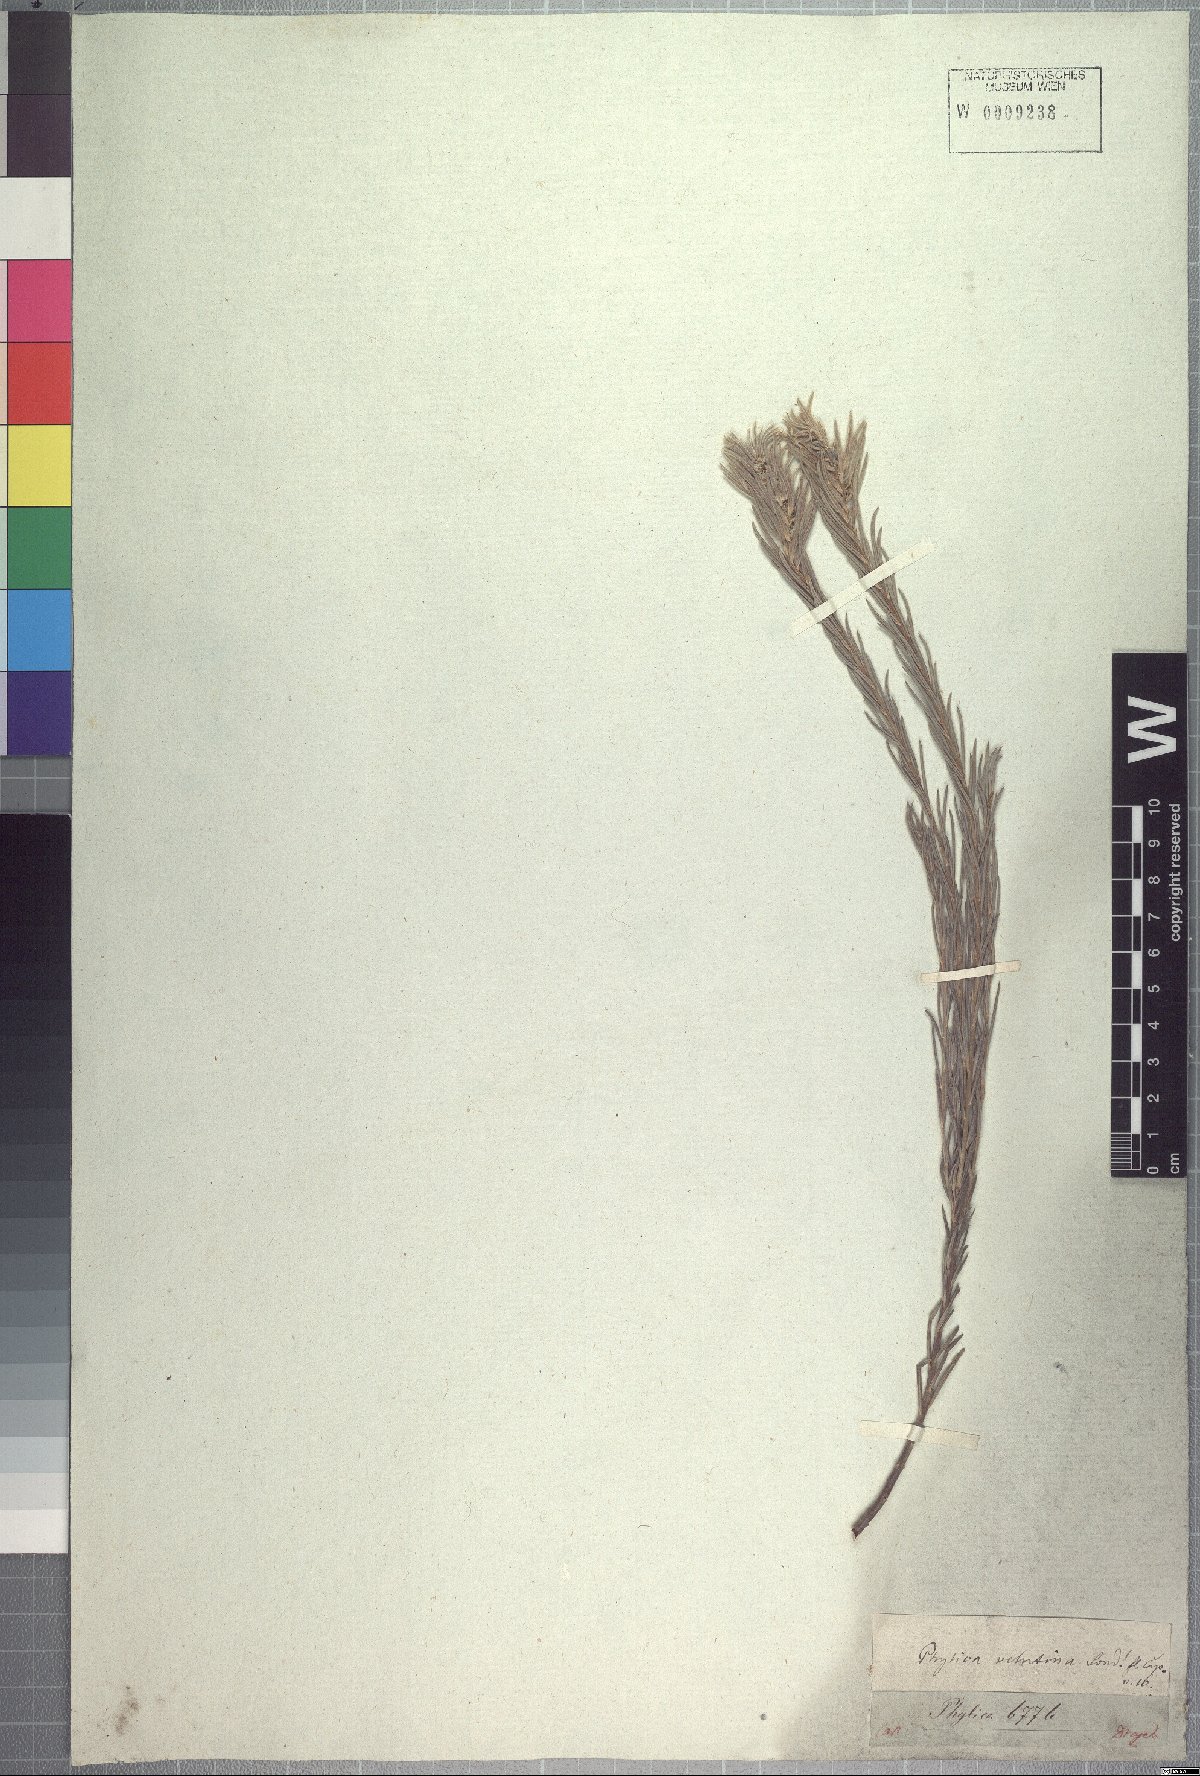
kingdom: Plantae
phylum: Tracheophyta
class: Magnoliopsida
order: Rosales
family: Rhamnaceae
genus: Phylica
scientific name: Phylica velutina
